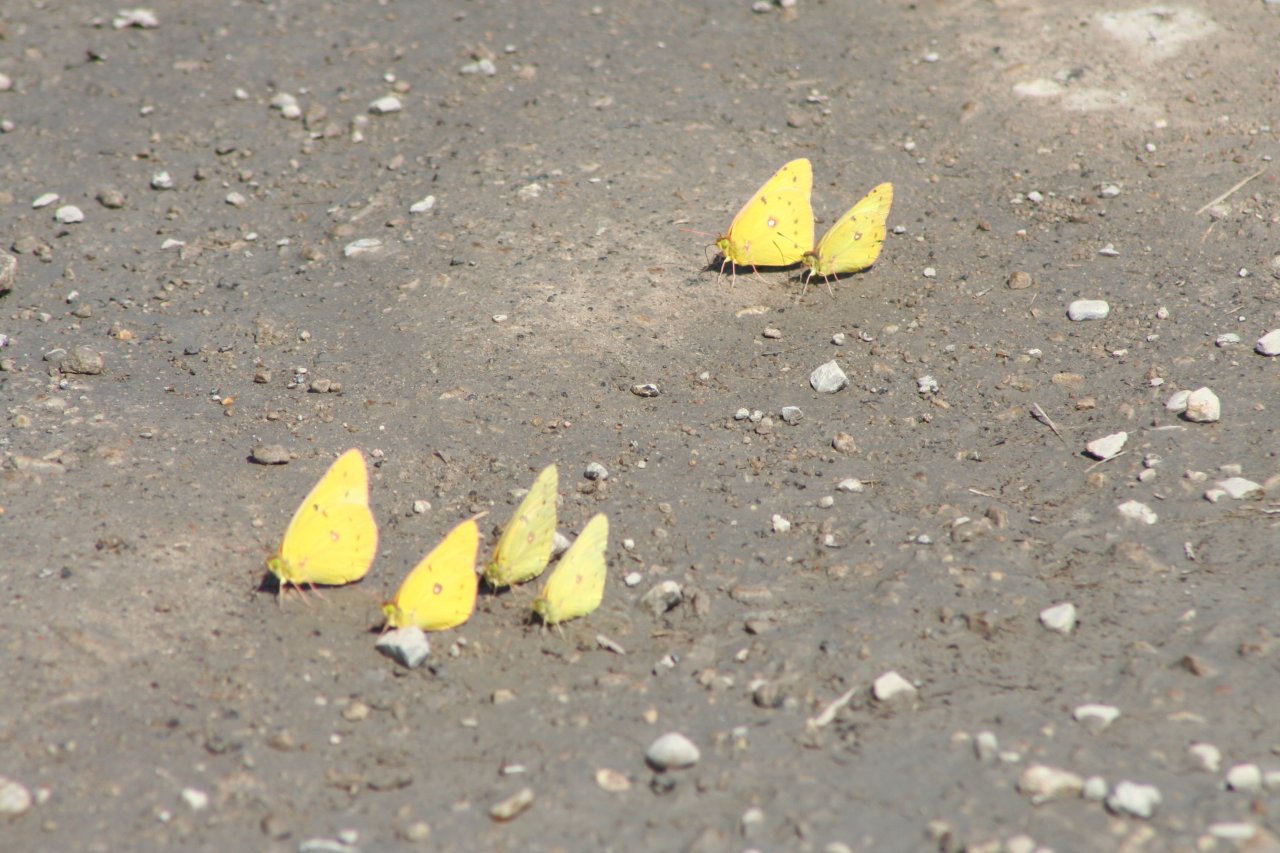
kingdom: Animalia
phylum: Arthropoda
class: Insecta
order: Lepidoptera
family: Pieridae
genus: Colias
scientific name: Colias philodice
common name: Clouded Sulphur
